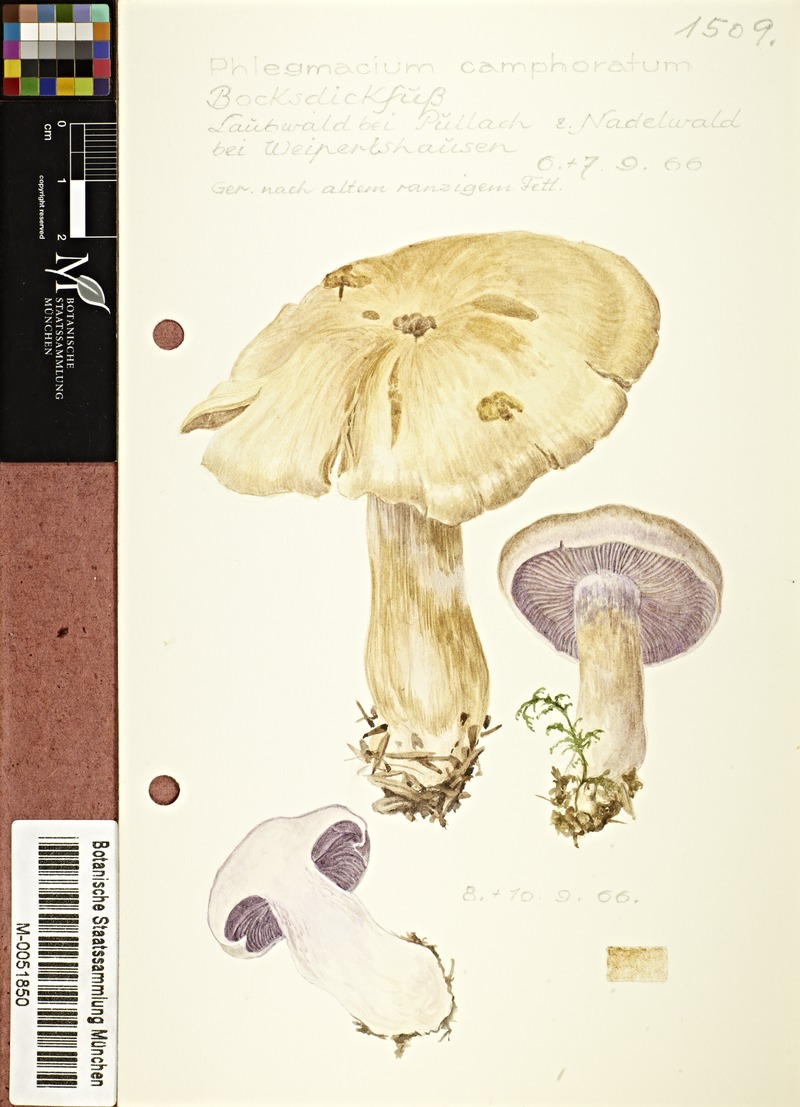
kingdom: Fungi
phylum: Basidiomycota
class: Agaricomycetes
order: Agaricales
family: Cortinariaceae
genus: Cortinarius
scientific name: Cortinarius camphoratus
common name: Goatcheese webcap
